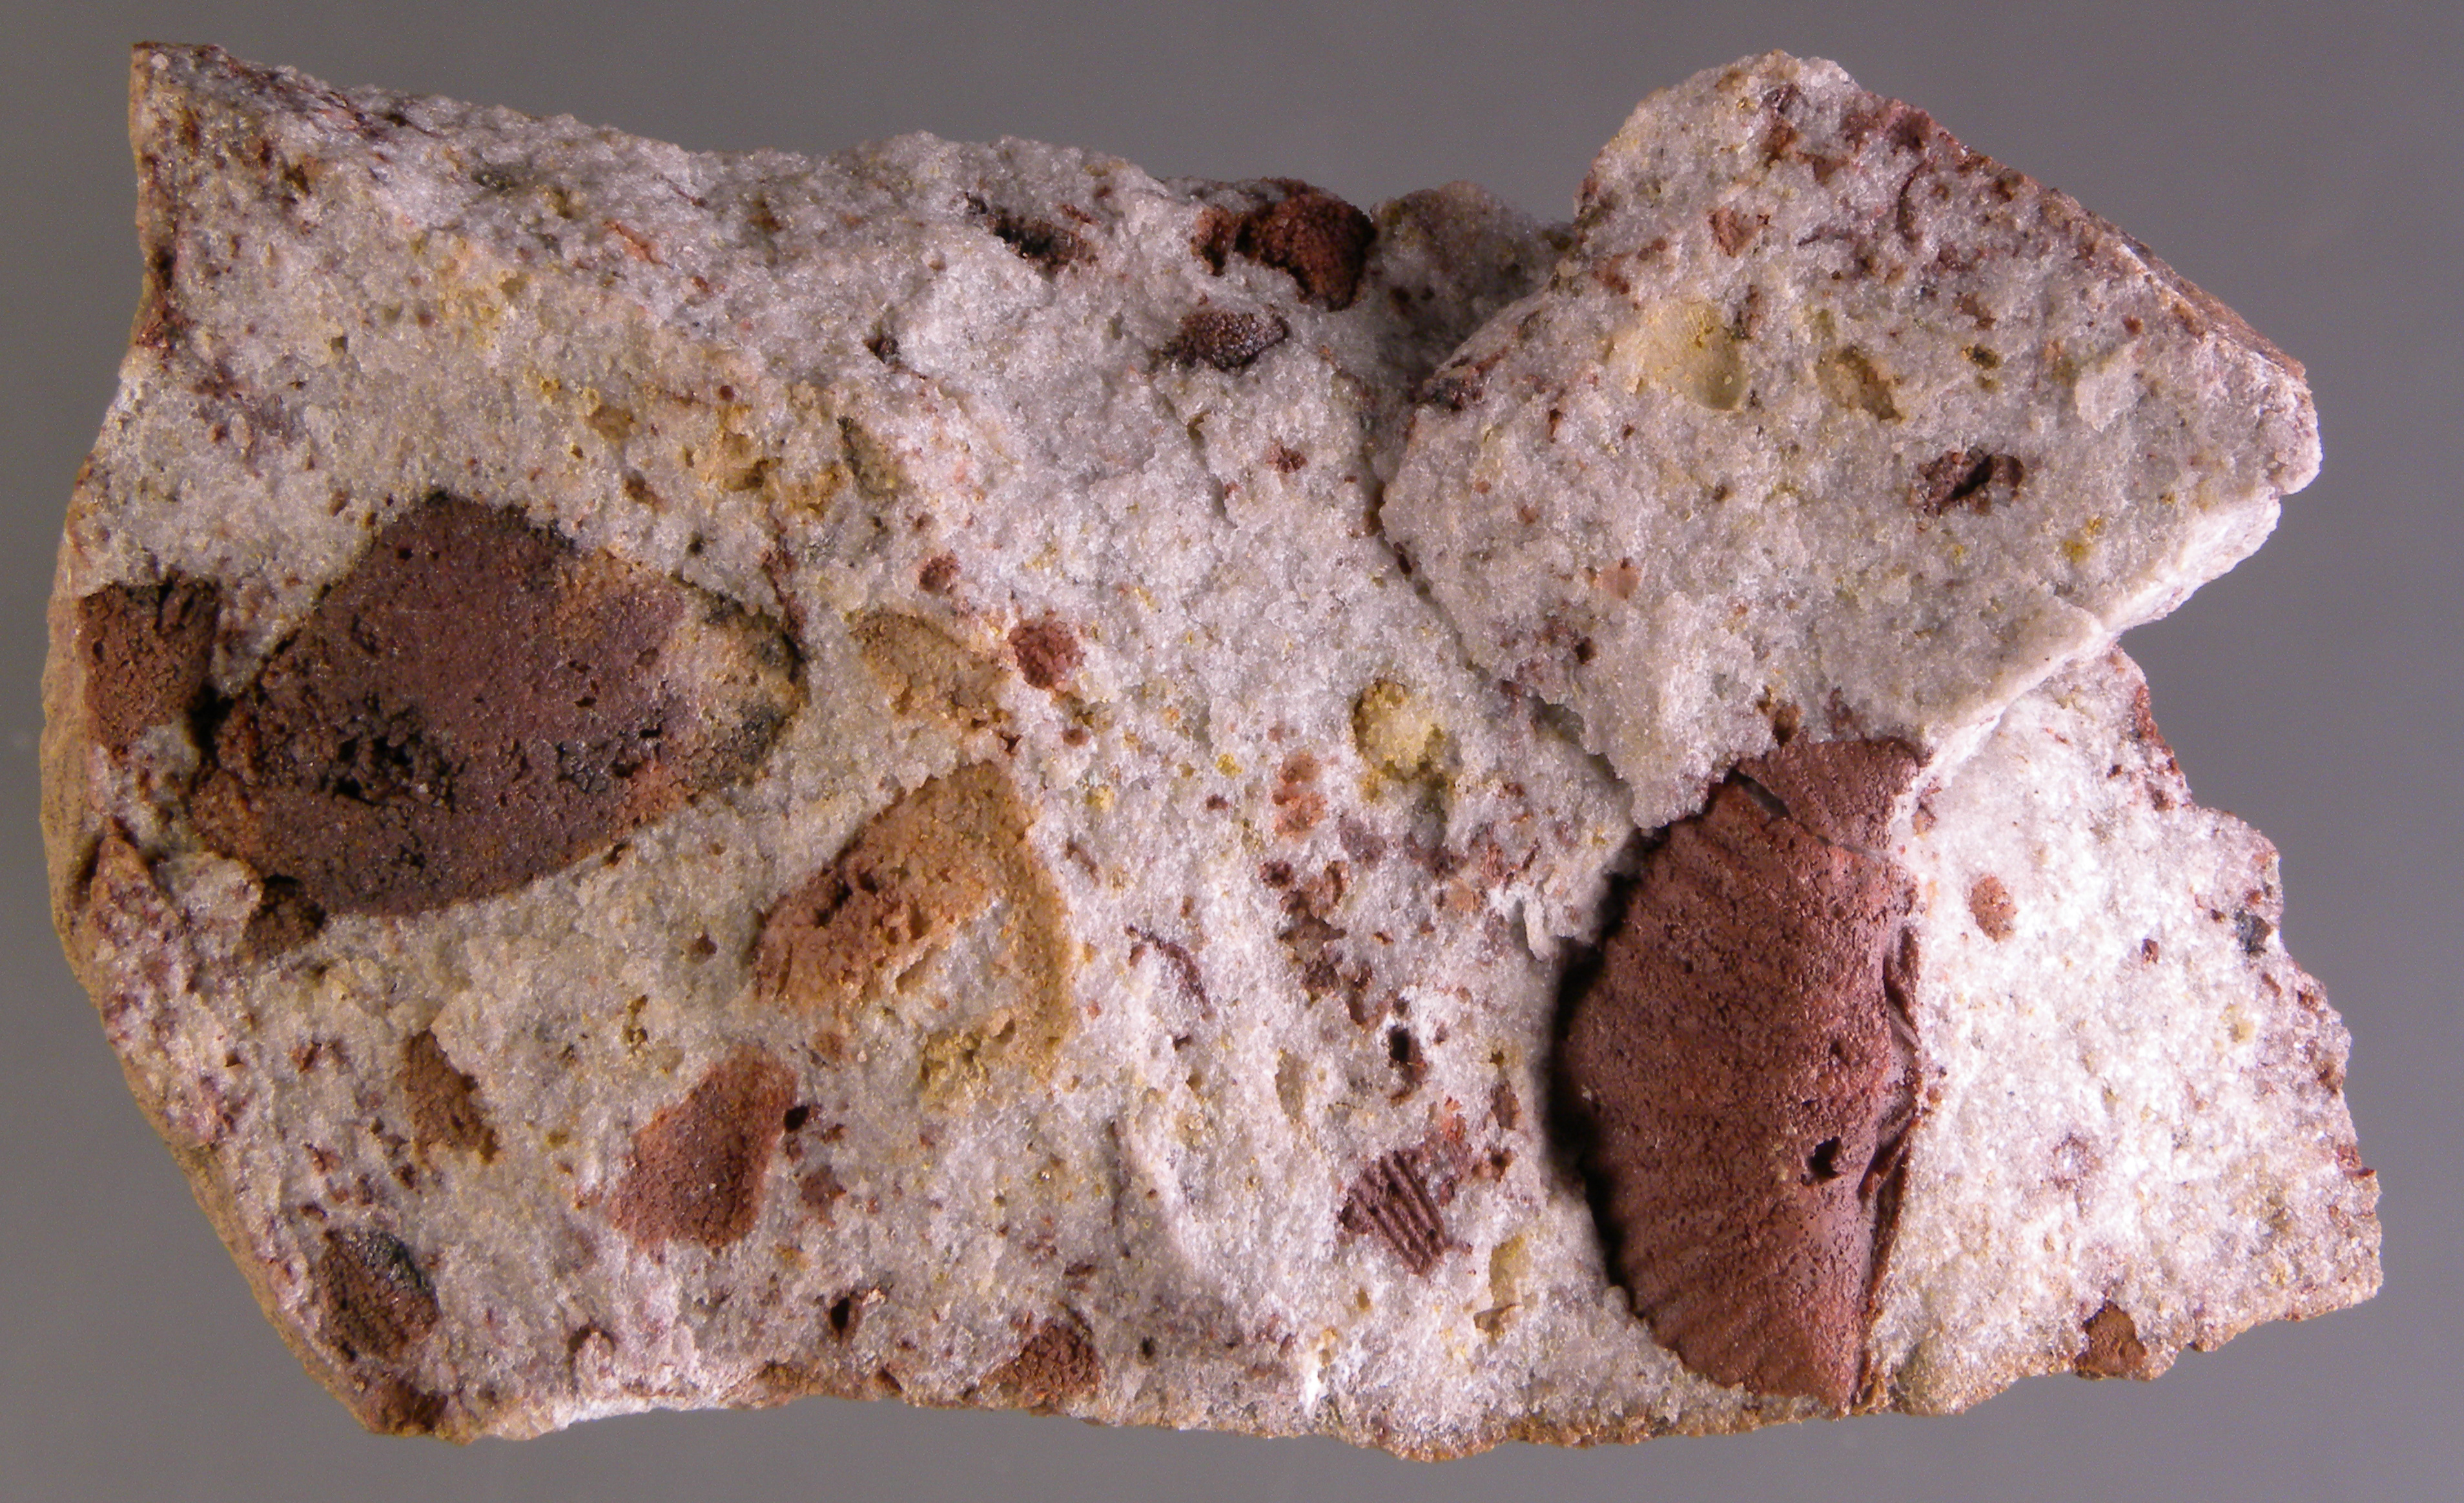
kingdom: Animalia
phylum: Brachiopoda
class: Rhynchonellata
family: Delthyrididae
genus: Brachyspirifer
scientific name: Brachyspirifer
